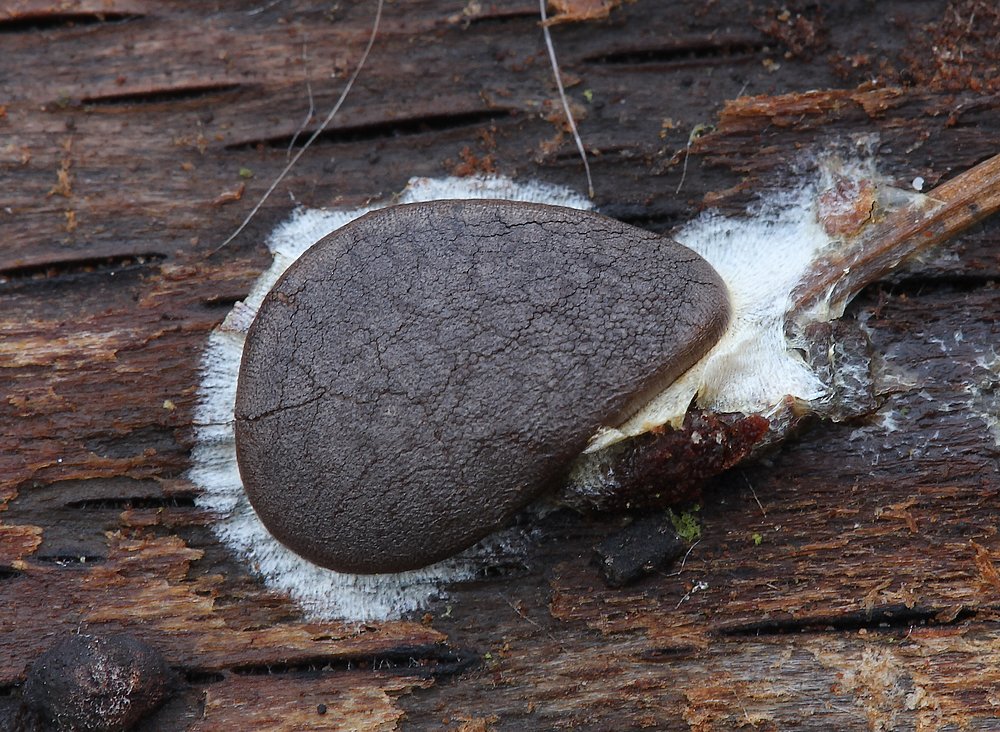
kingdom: Protozoa
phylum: Mycetozoa
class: Myxomycetes
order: Trichiales
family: Dictydiaethaliaceae
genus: Dictydiaethalium
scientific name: Dictydiaethalium plumbeum
